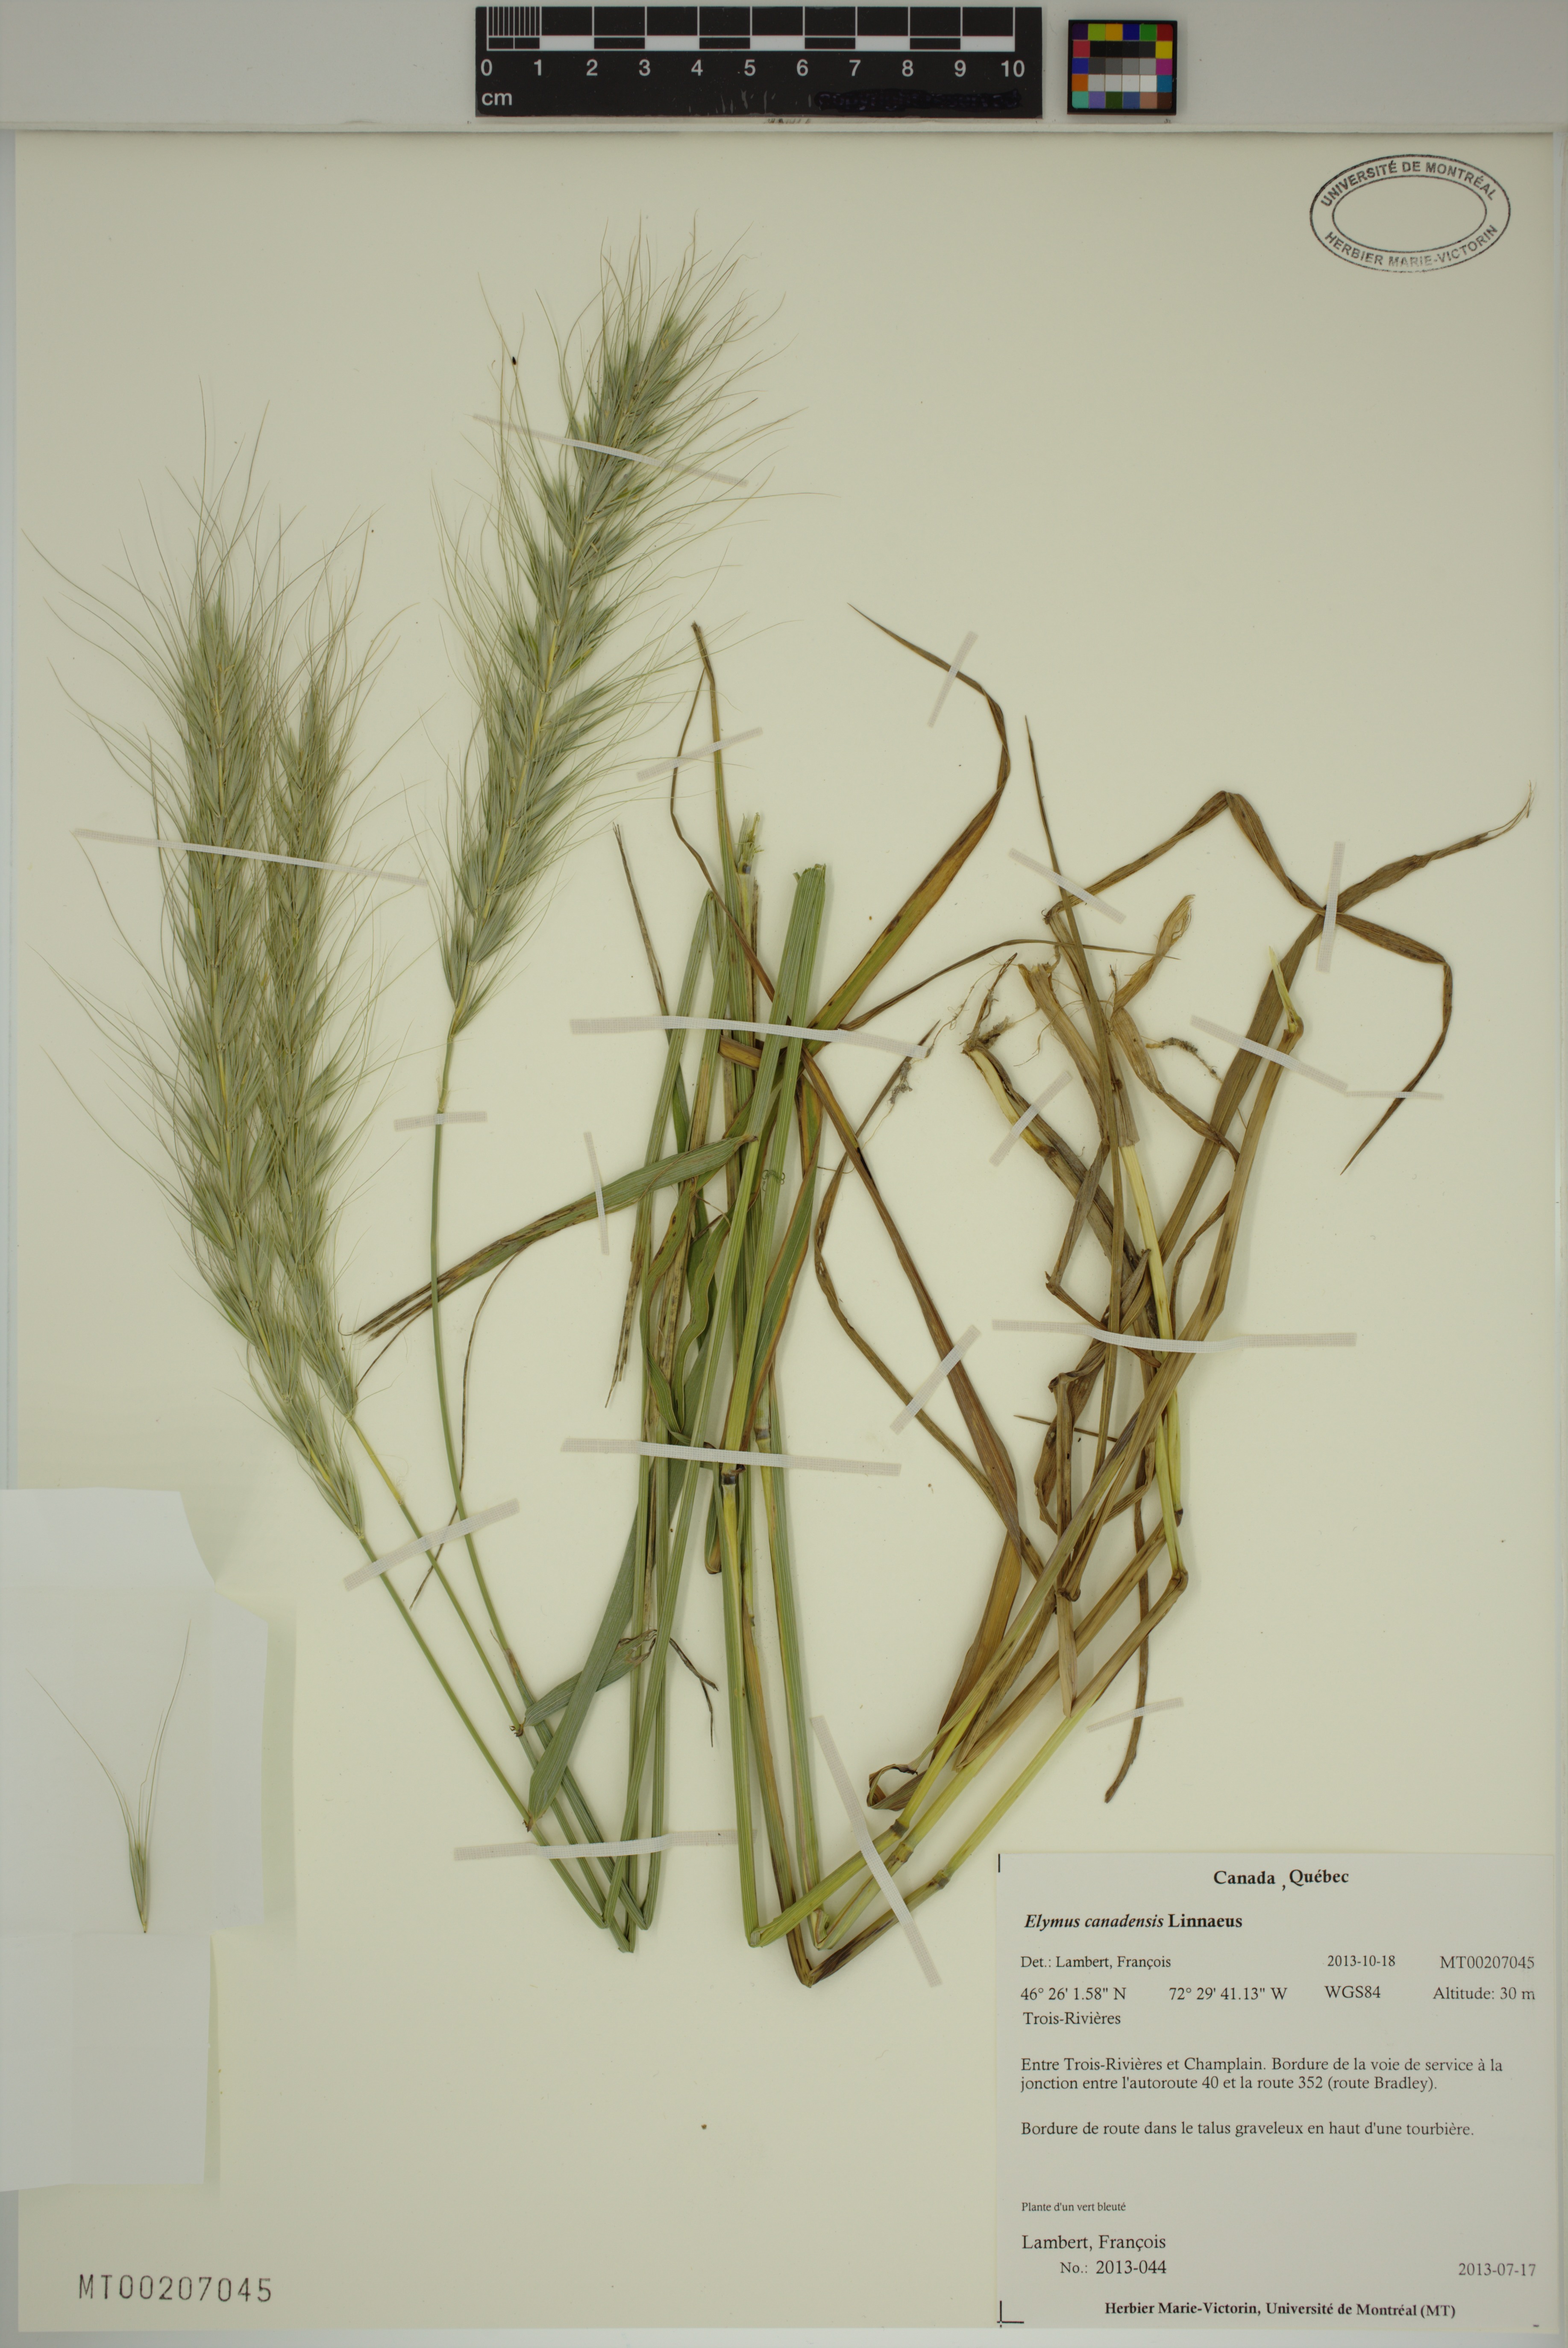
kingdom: Plantae
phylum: Tracheophyta
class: Liliopsida
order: Poales
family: Poaceae
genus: Elymus
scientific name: Elymus canadensis
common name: Canada wild rye
